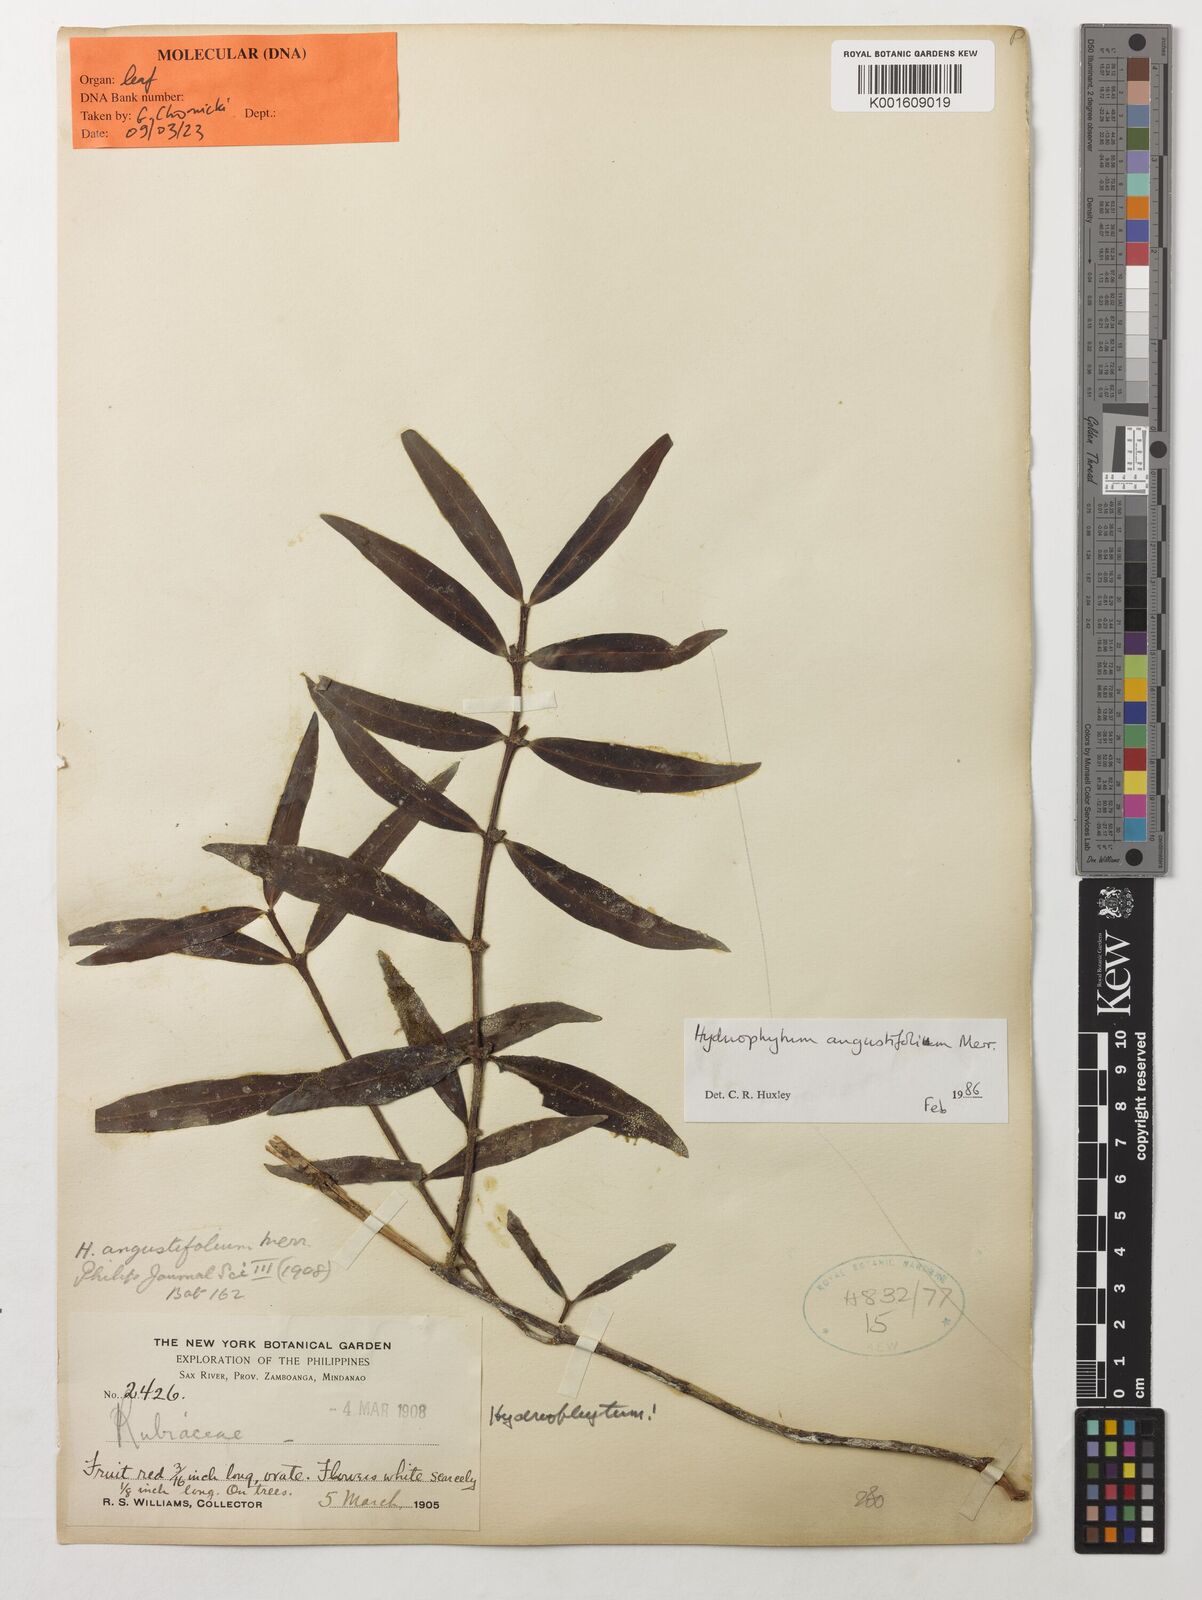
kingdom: Plantae
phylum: Tracheophyta
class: Magnoliopsida
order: Gentianales
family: Rubiaceae
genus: Hydnophytum
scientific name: Hydnophytum angustifolium
